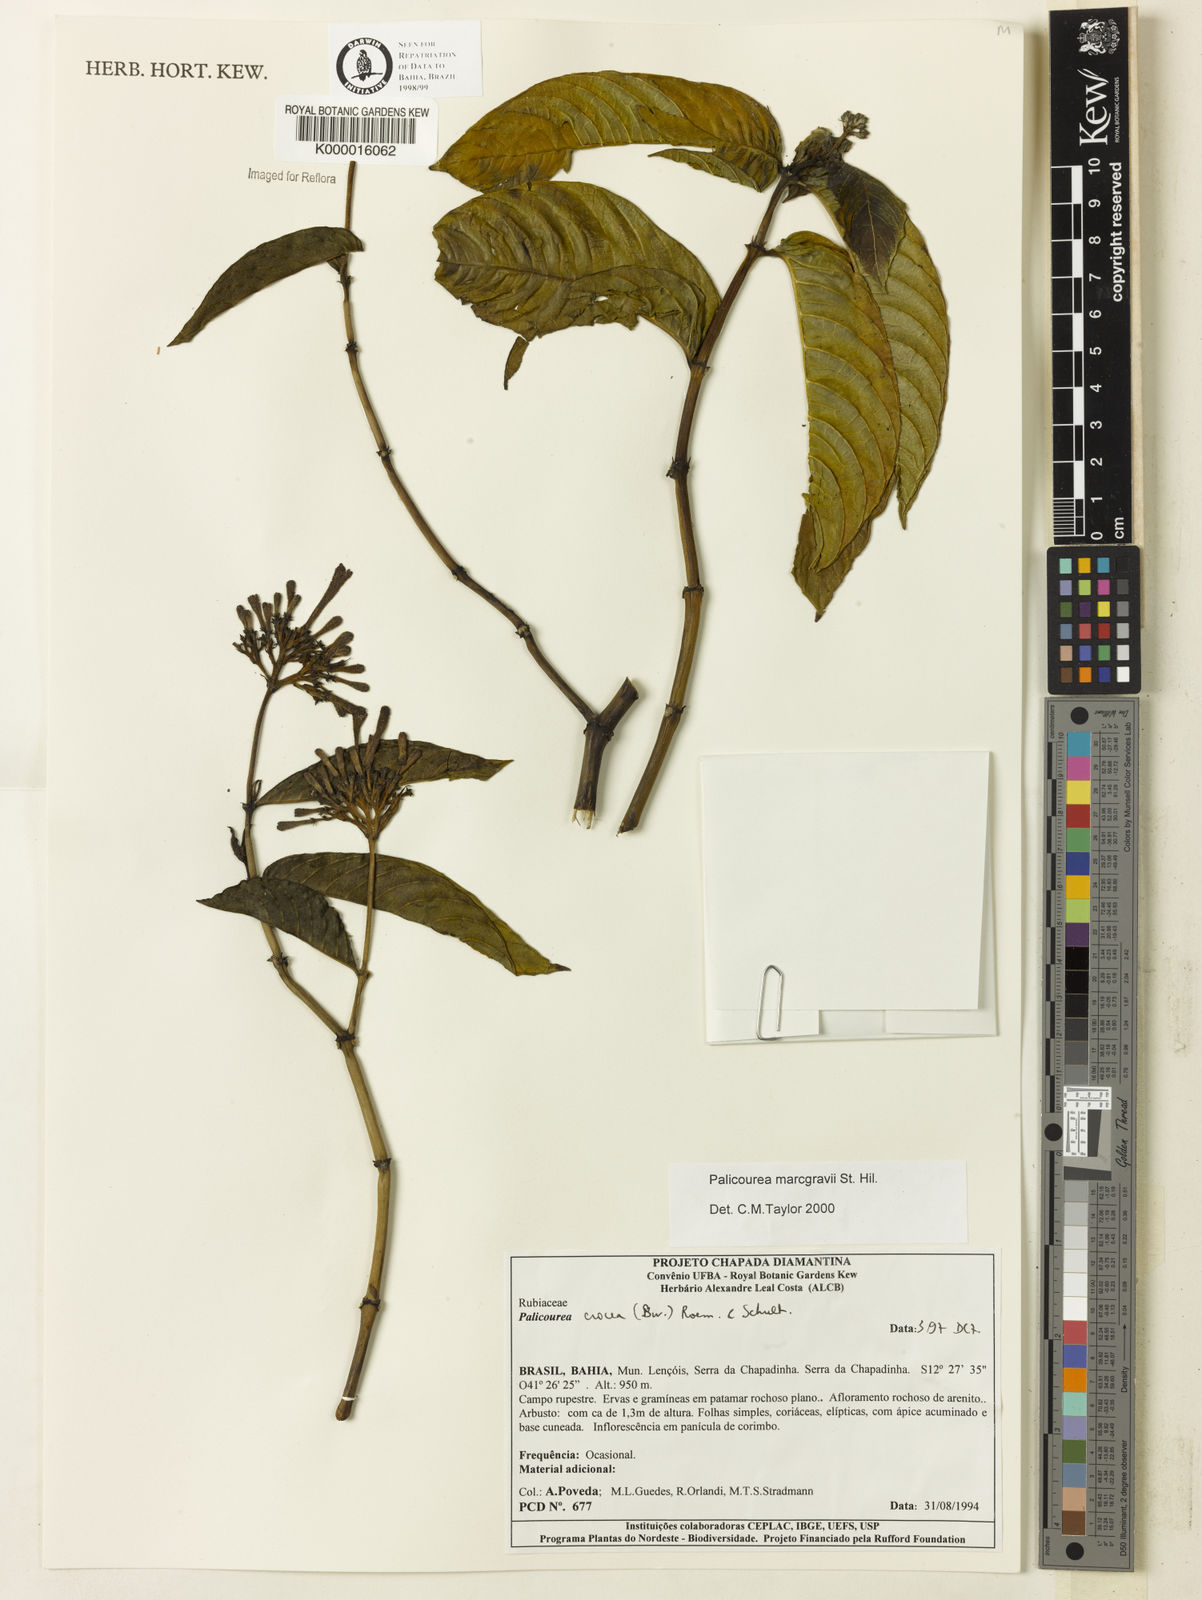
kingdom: Plantae
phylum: Tracheophyta
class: Magnoliopsida
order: Gentianales
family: Rubiaceae
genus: Palicourea
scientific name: Palicourea marcgravii
